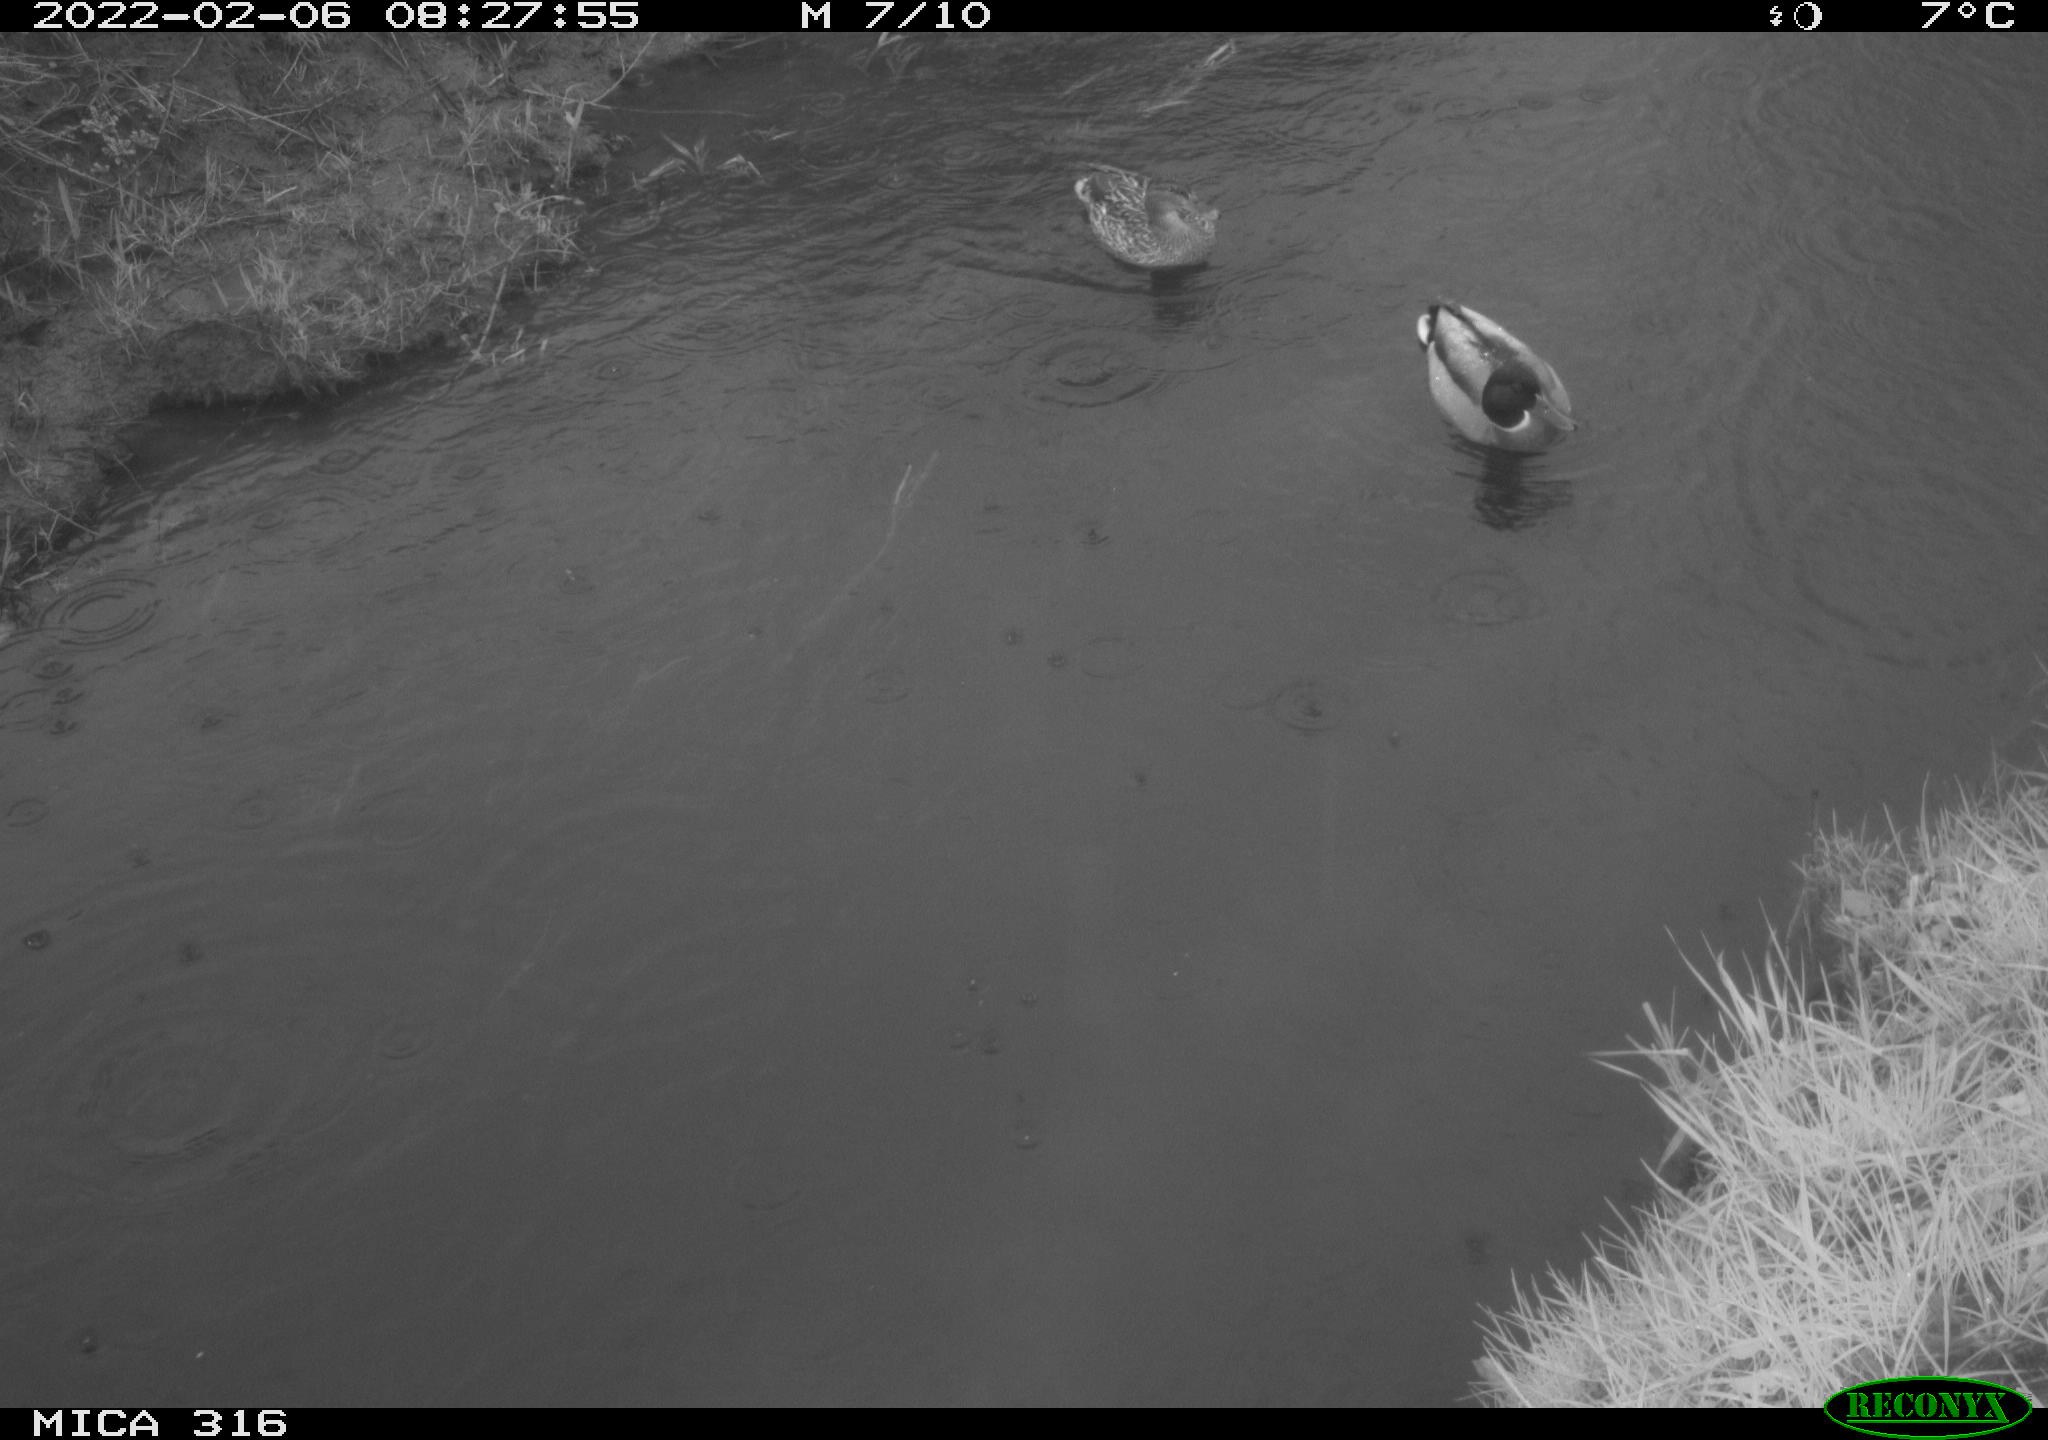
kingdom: Animalia
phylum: Chordata
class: Aves
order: Anseriformes
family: Anatidae
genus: Mareca
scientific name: Mareca strepera
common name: Gadwall
